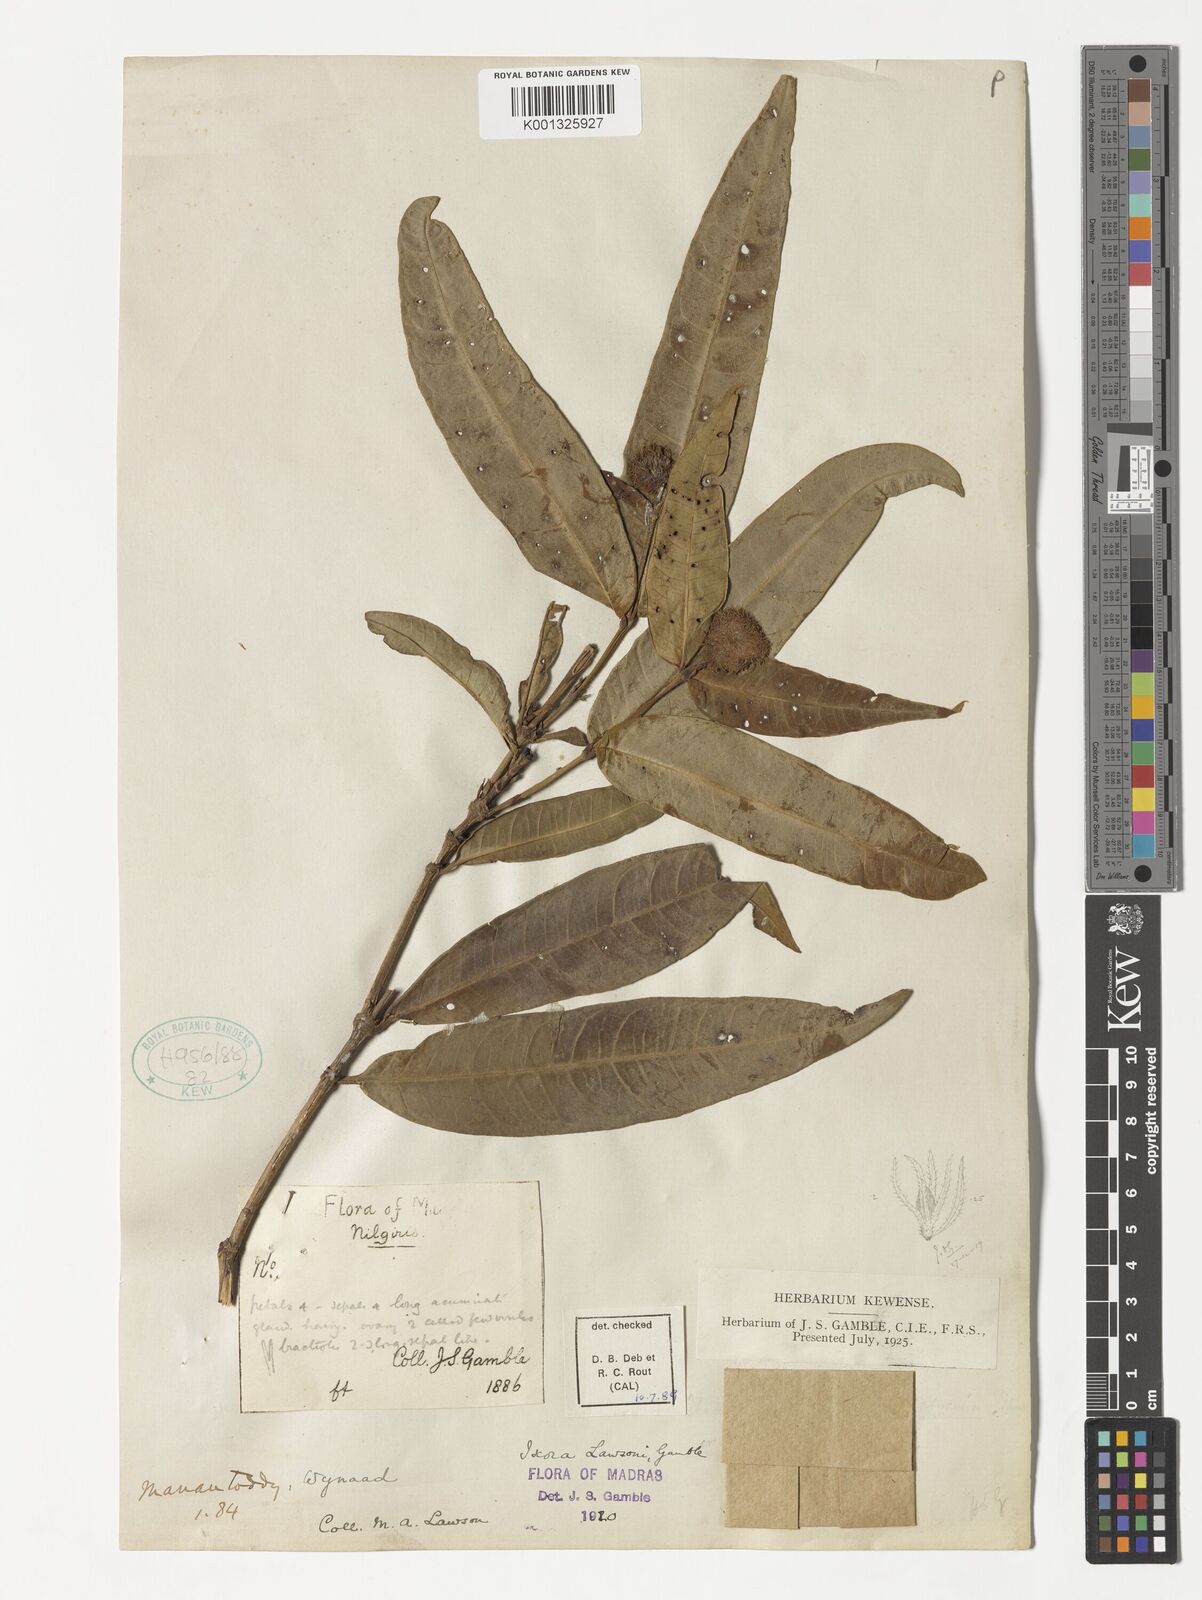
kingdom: Plantae
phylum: Tracheophyta
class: Magnoliopsida
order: Gentianales
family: Rubiaceae
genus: Ixora
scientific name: Ixora lawsonii
